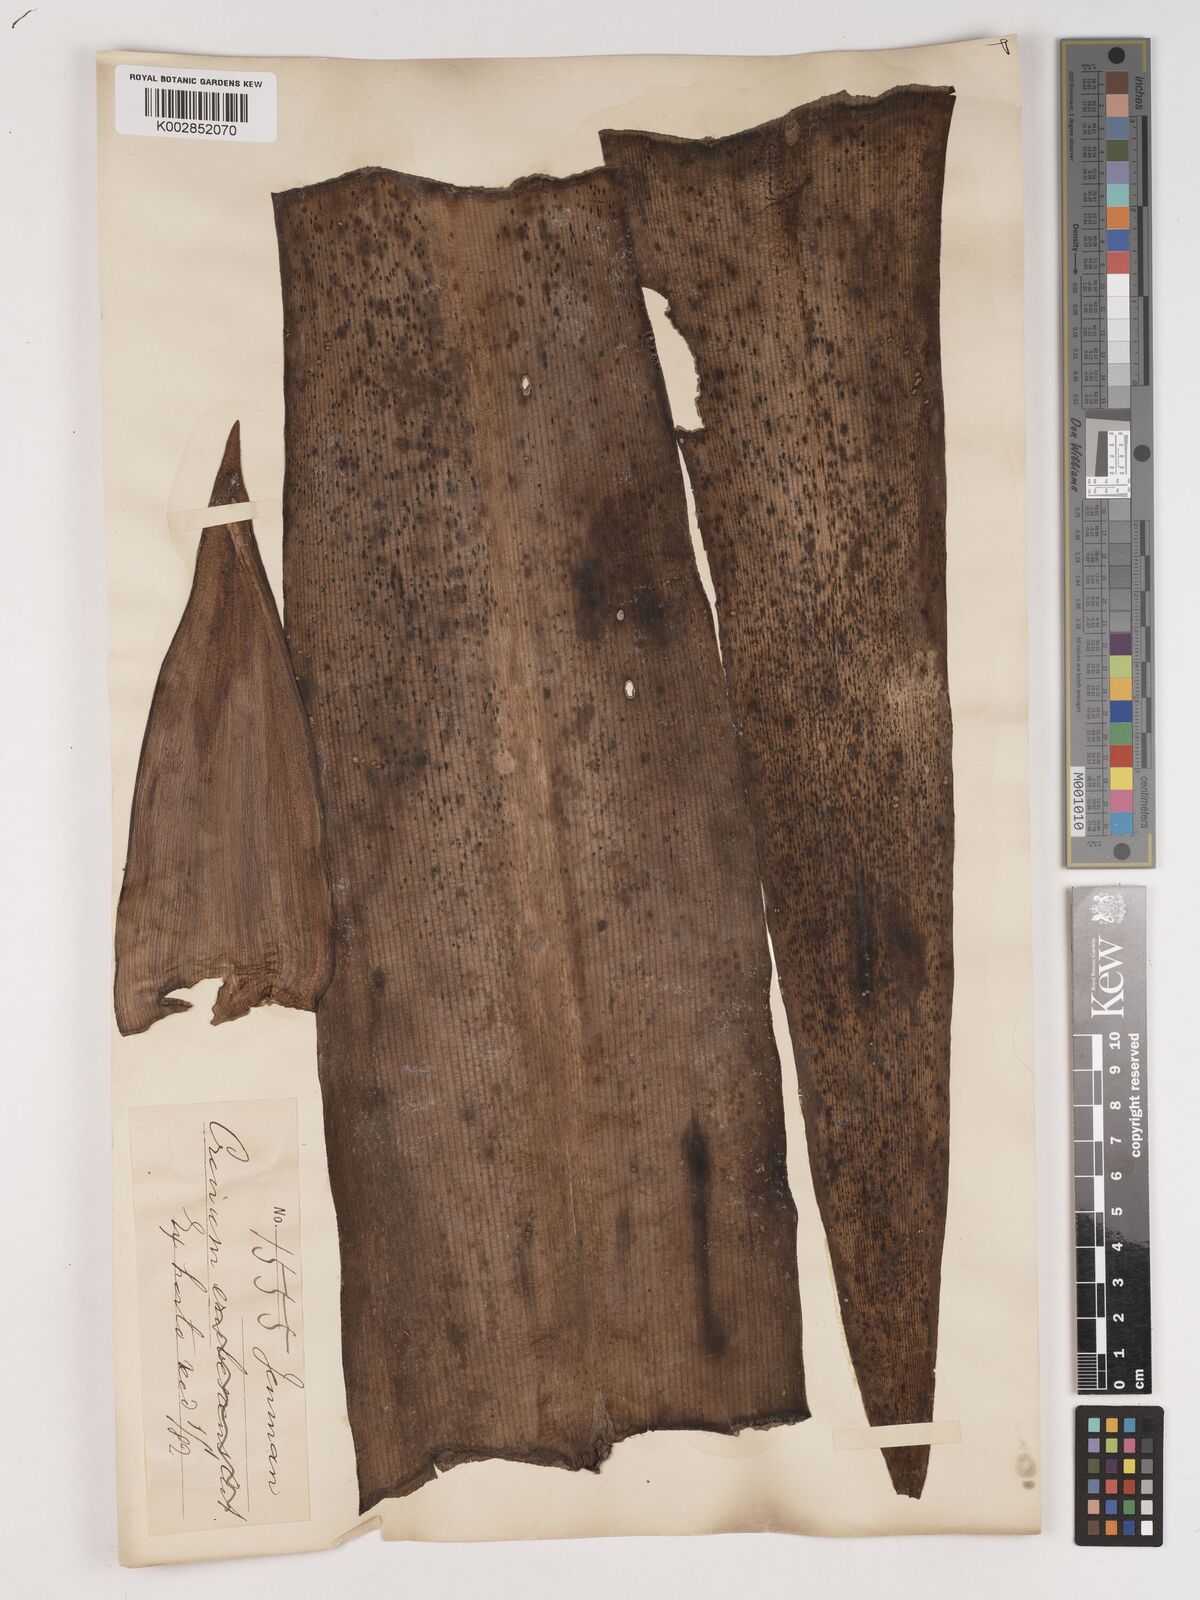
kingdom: Plantae
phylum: Tracheophyta
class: Liliopsida
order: Asparagales
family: Amaryllidaceae
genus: Crinum
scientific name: Crinum amabile
